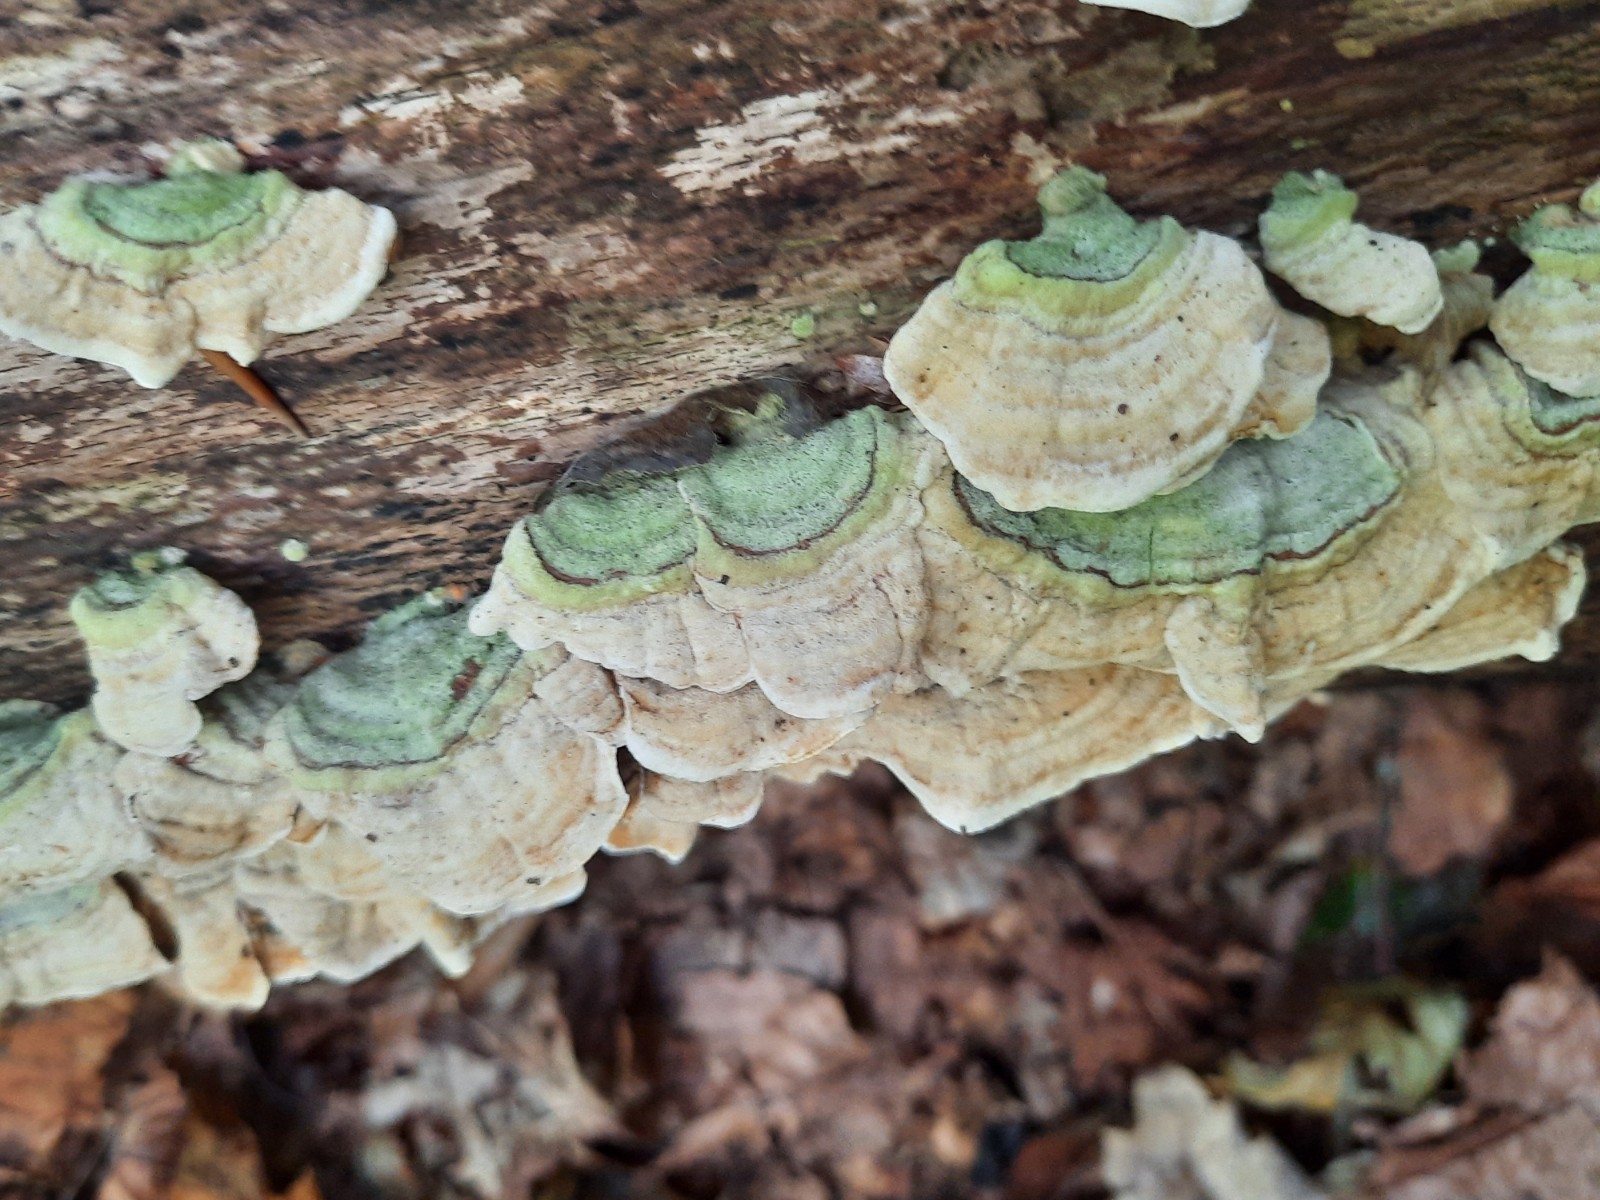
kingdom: Fungi
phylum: Basidiomycota
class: Agaricomycetes
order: Russulales
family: Stereaceae
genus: Stereum
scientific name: Stereum subtomentosum
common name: smuk lædersvamp
